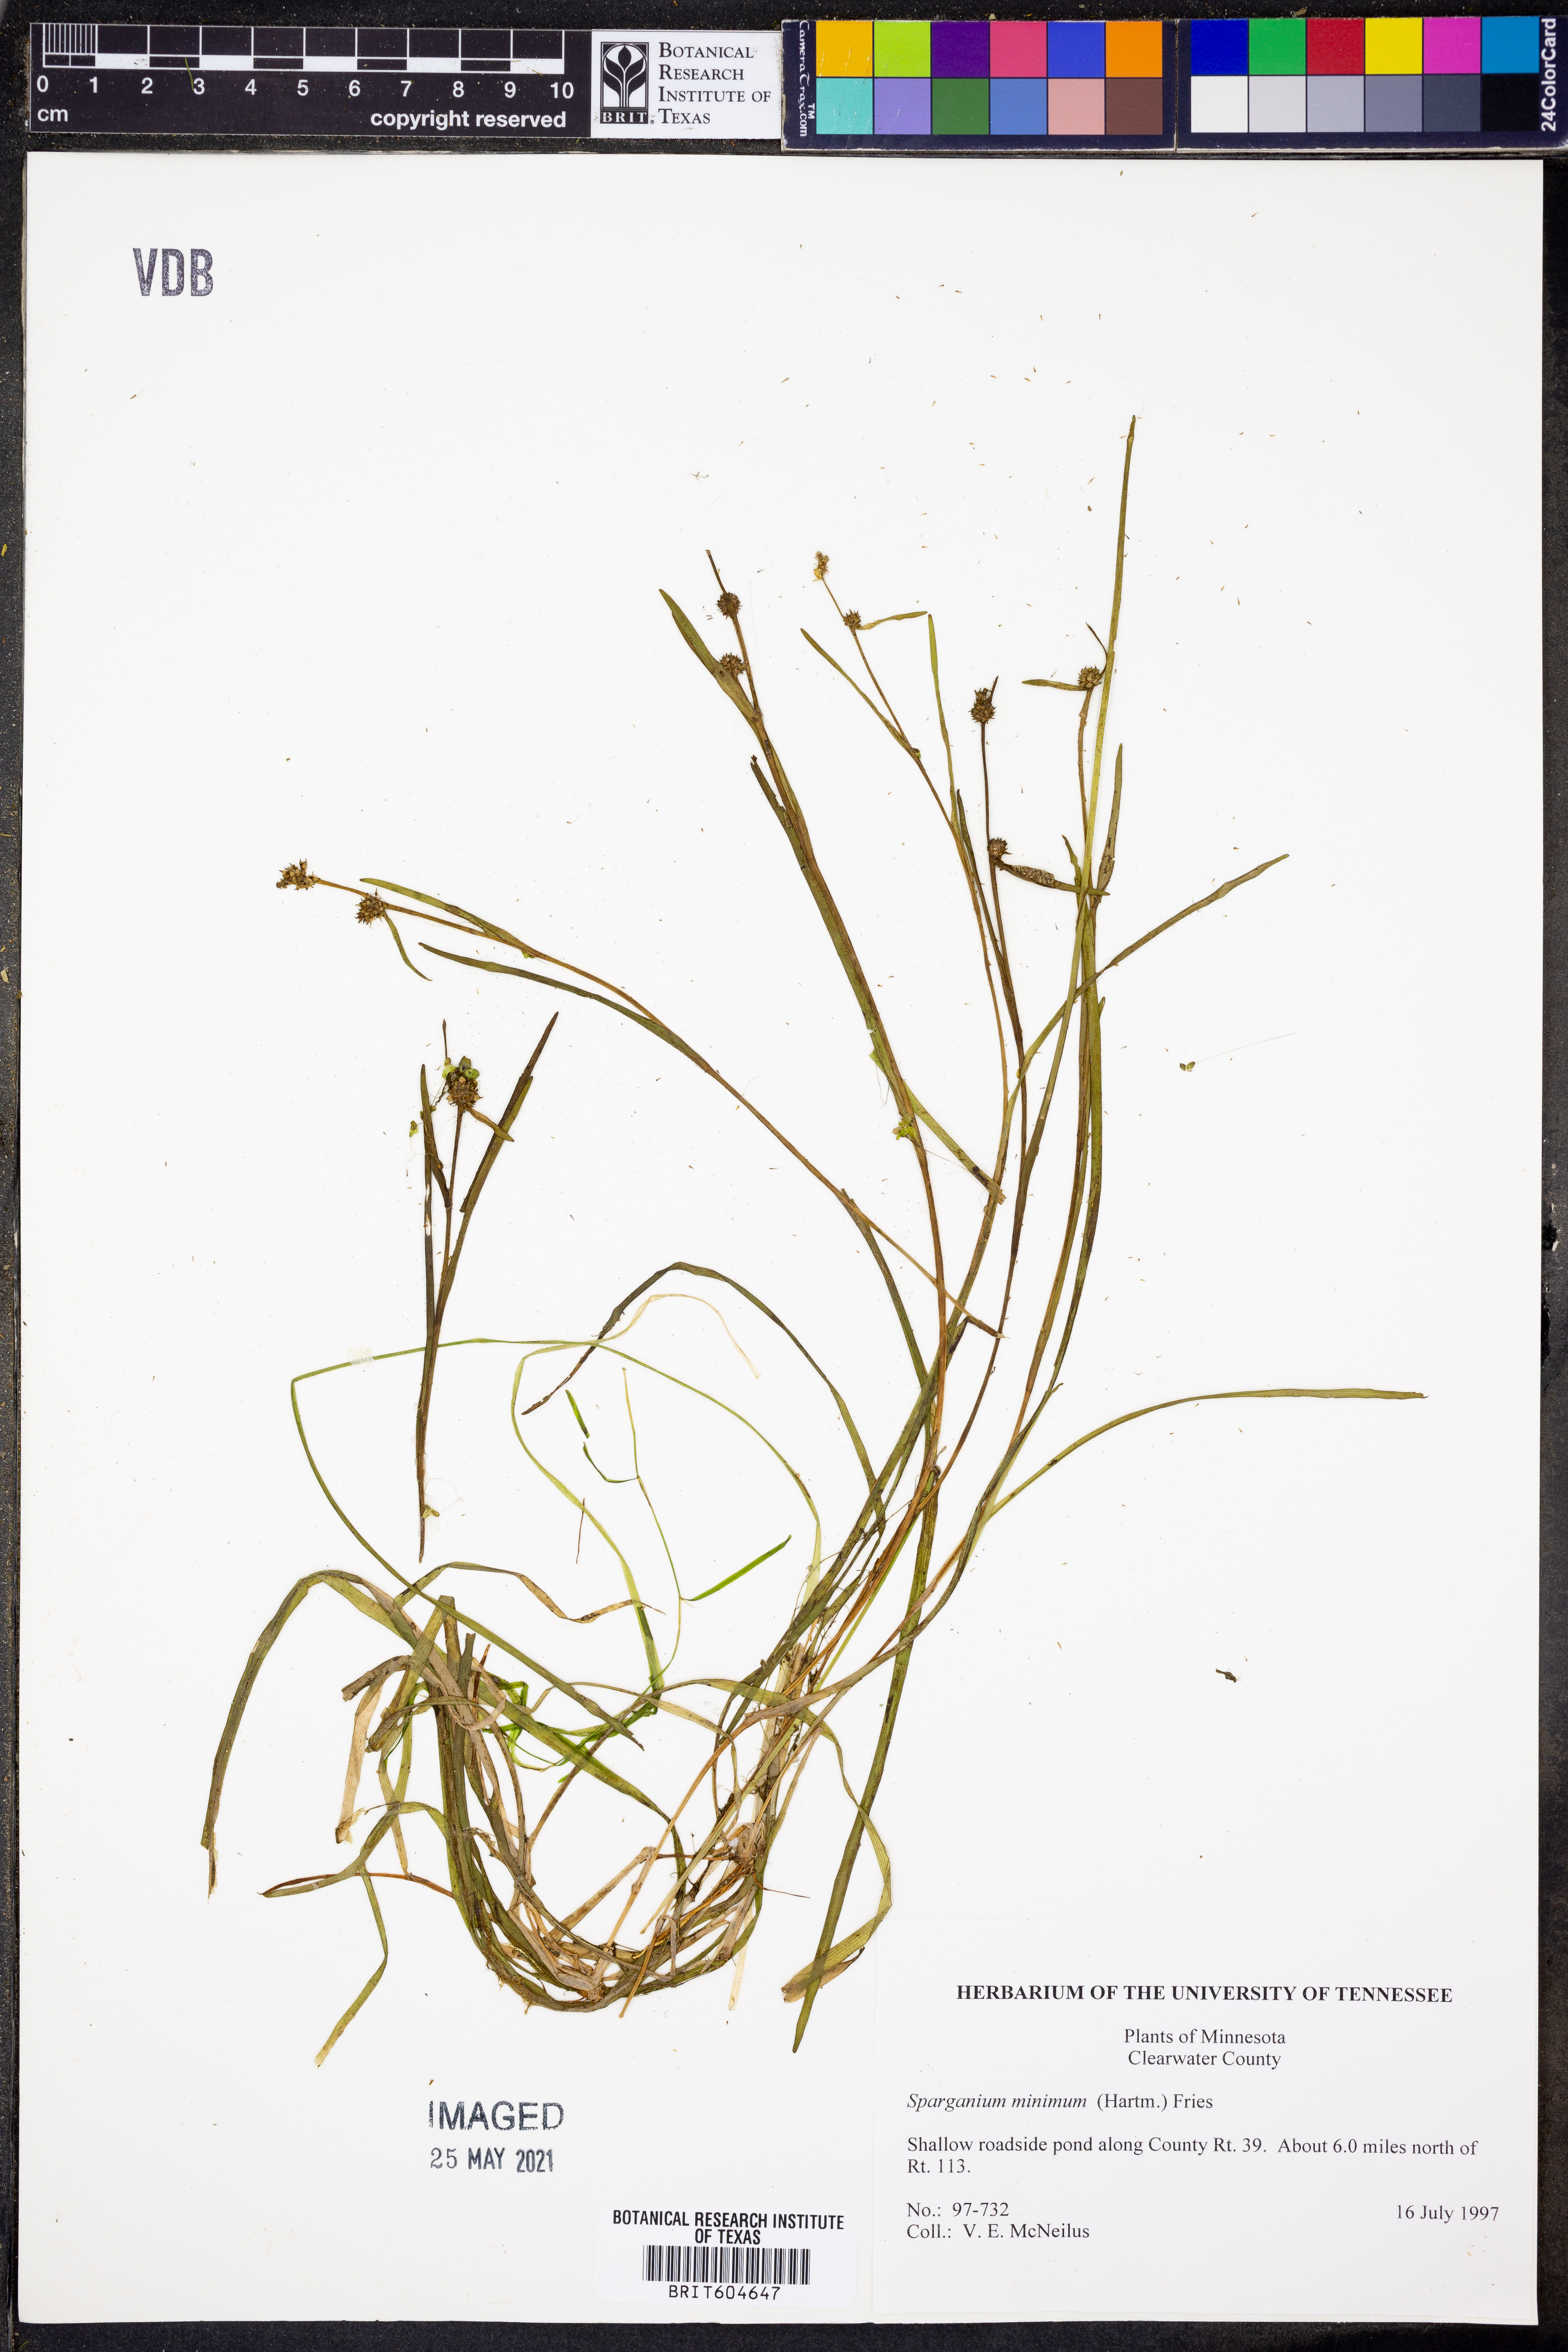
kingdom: Plantae
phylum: Tracheophyta
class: Liliopsida
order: Poales
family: Typhaceae
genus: Sparganium
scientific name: Sparganium natans
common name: Least bur-reed
